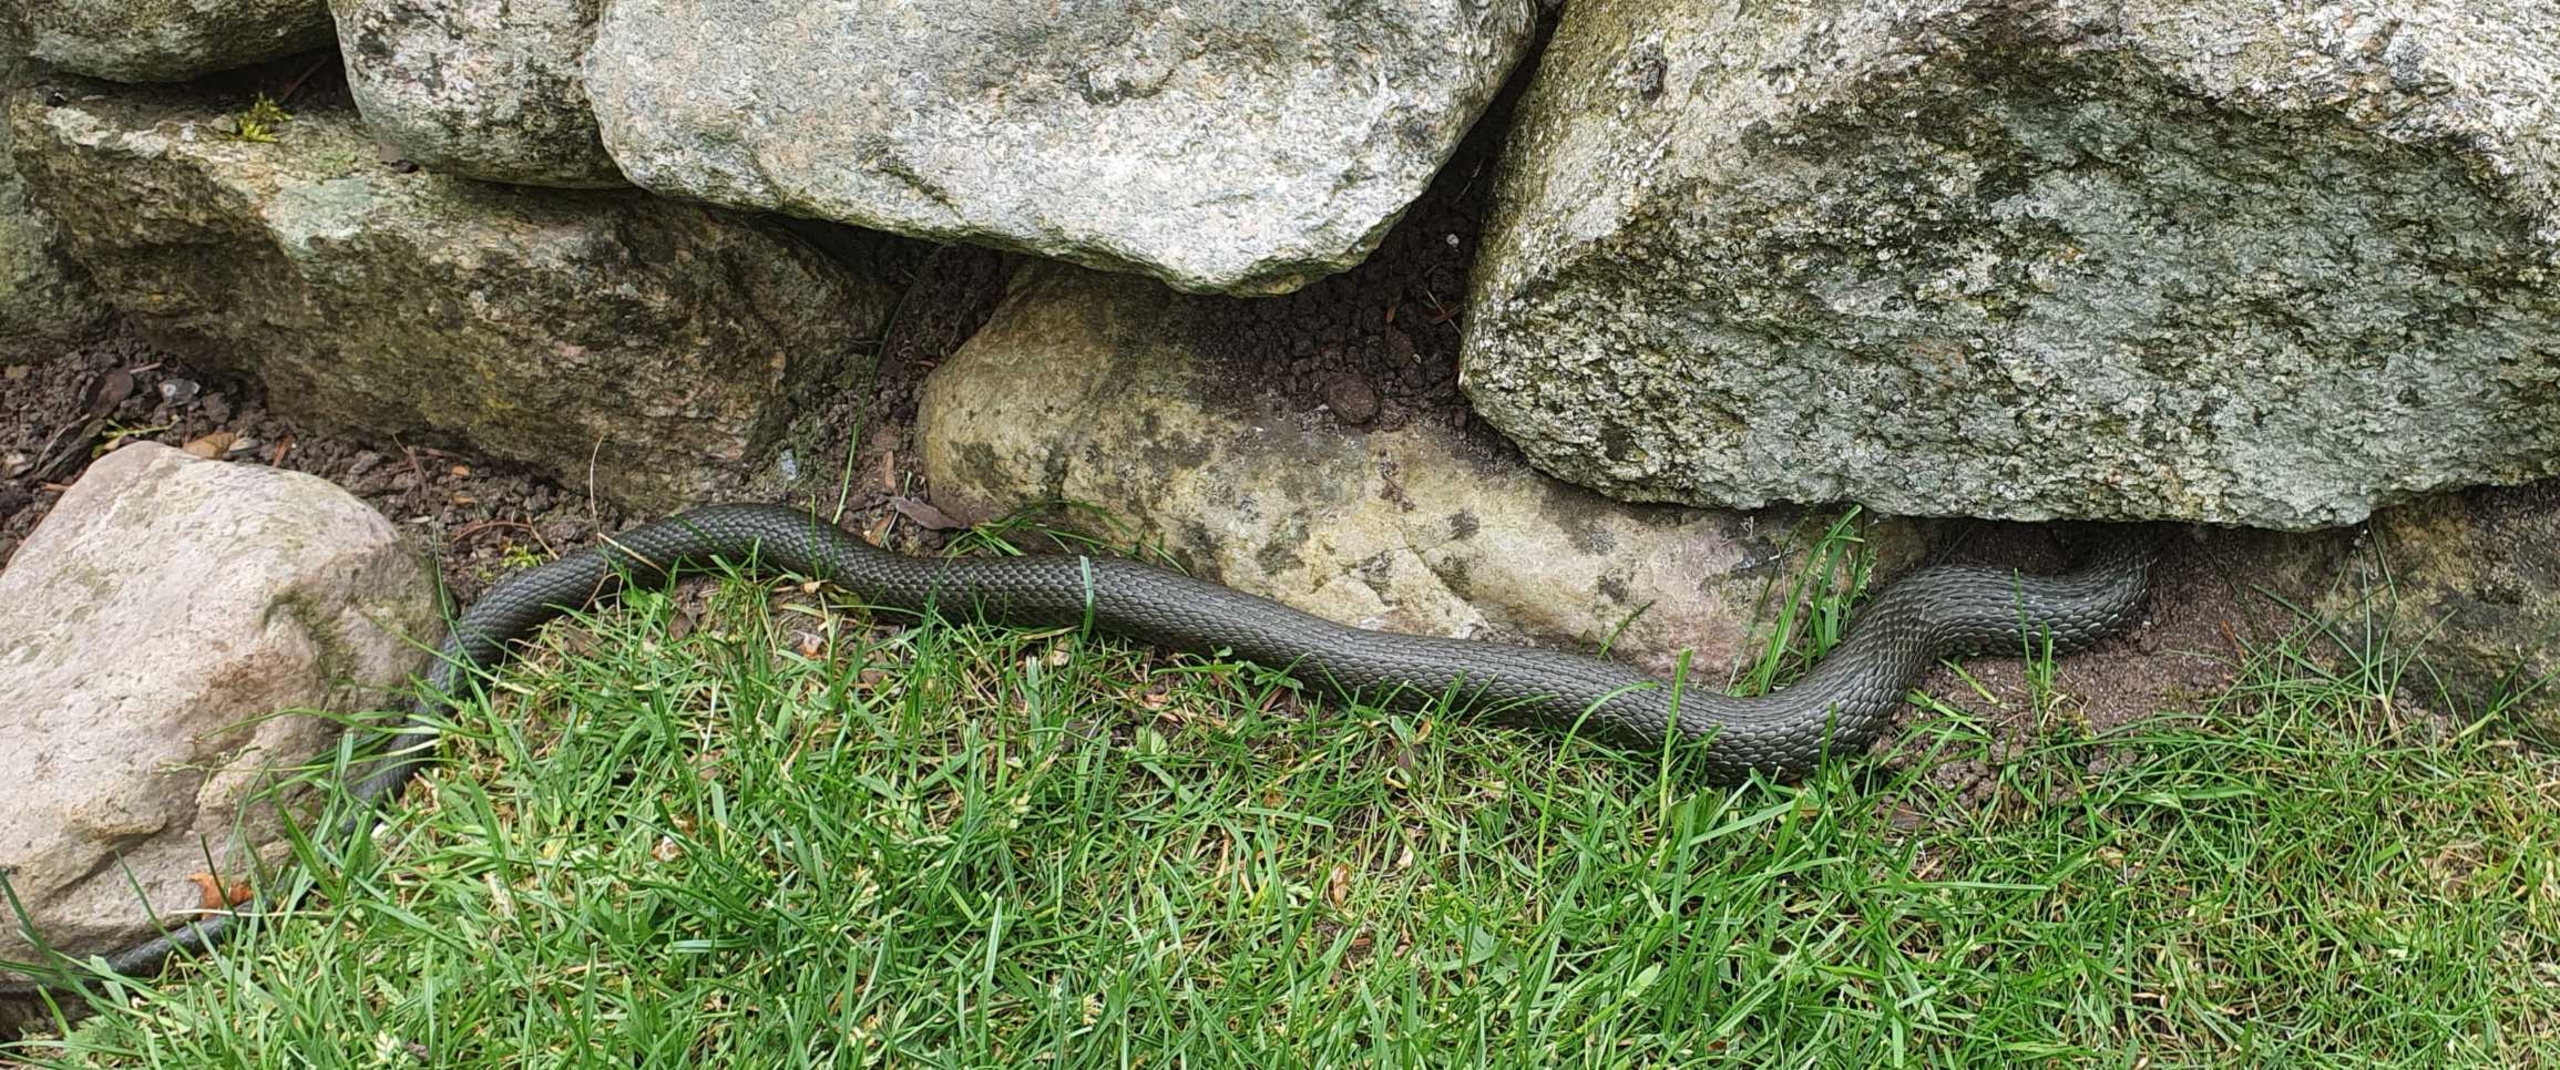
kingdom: Animalia
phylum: Chordata
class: Squamata
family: Colubridae
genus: Natrix
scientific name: Natrix natrix
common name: Snog
